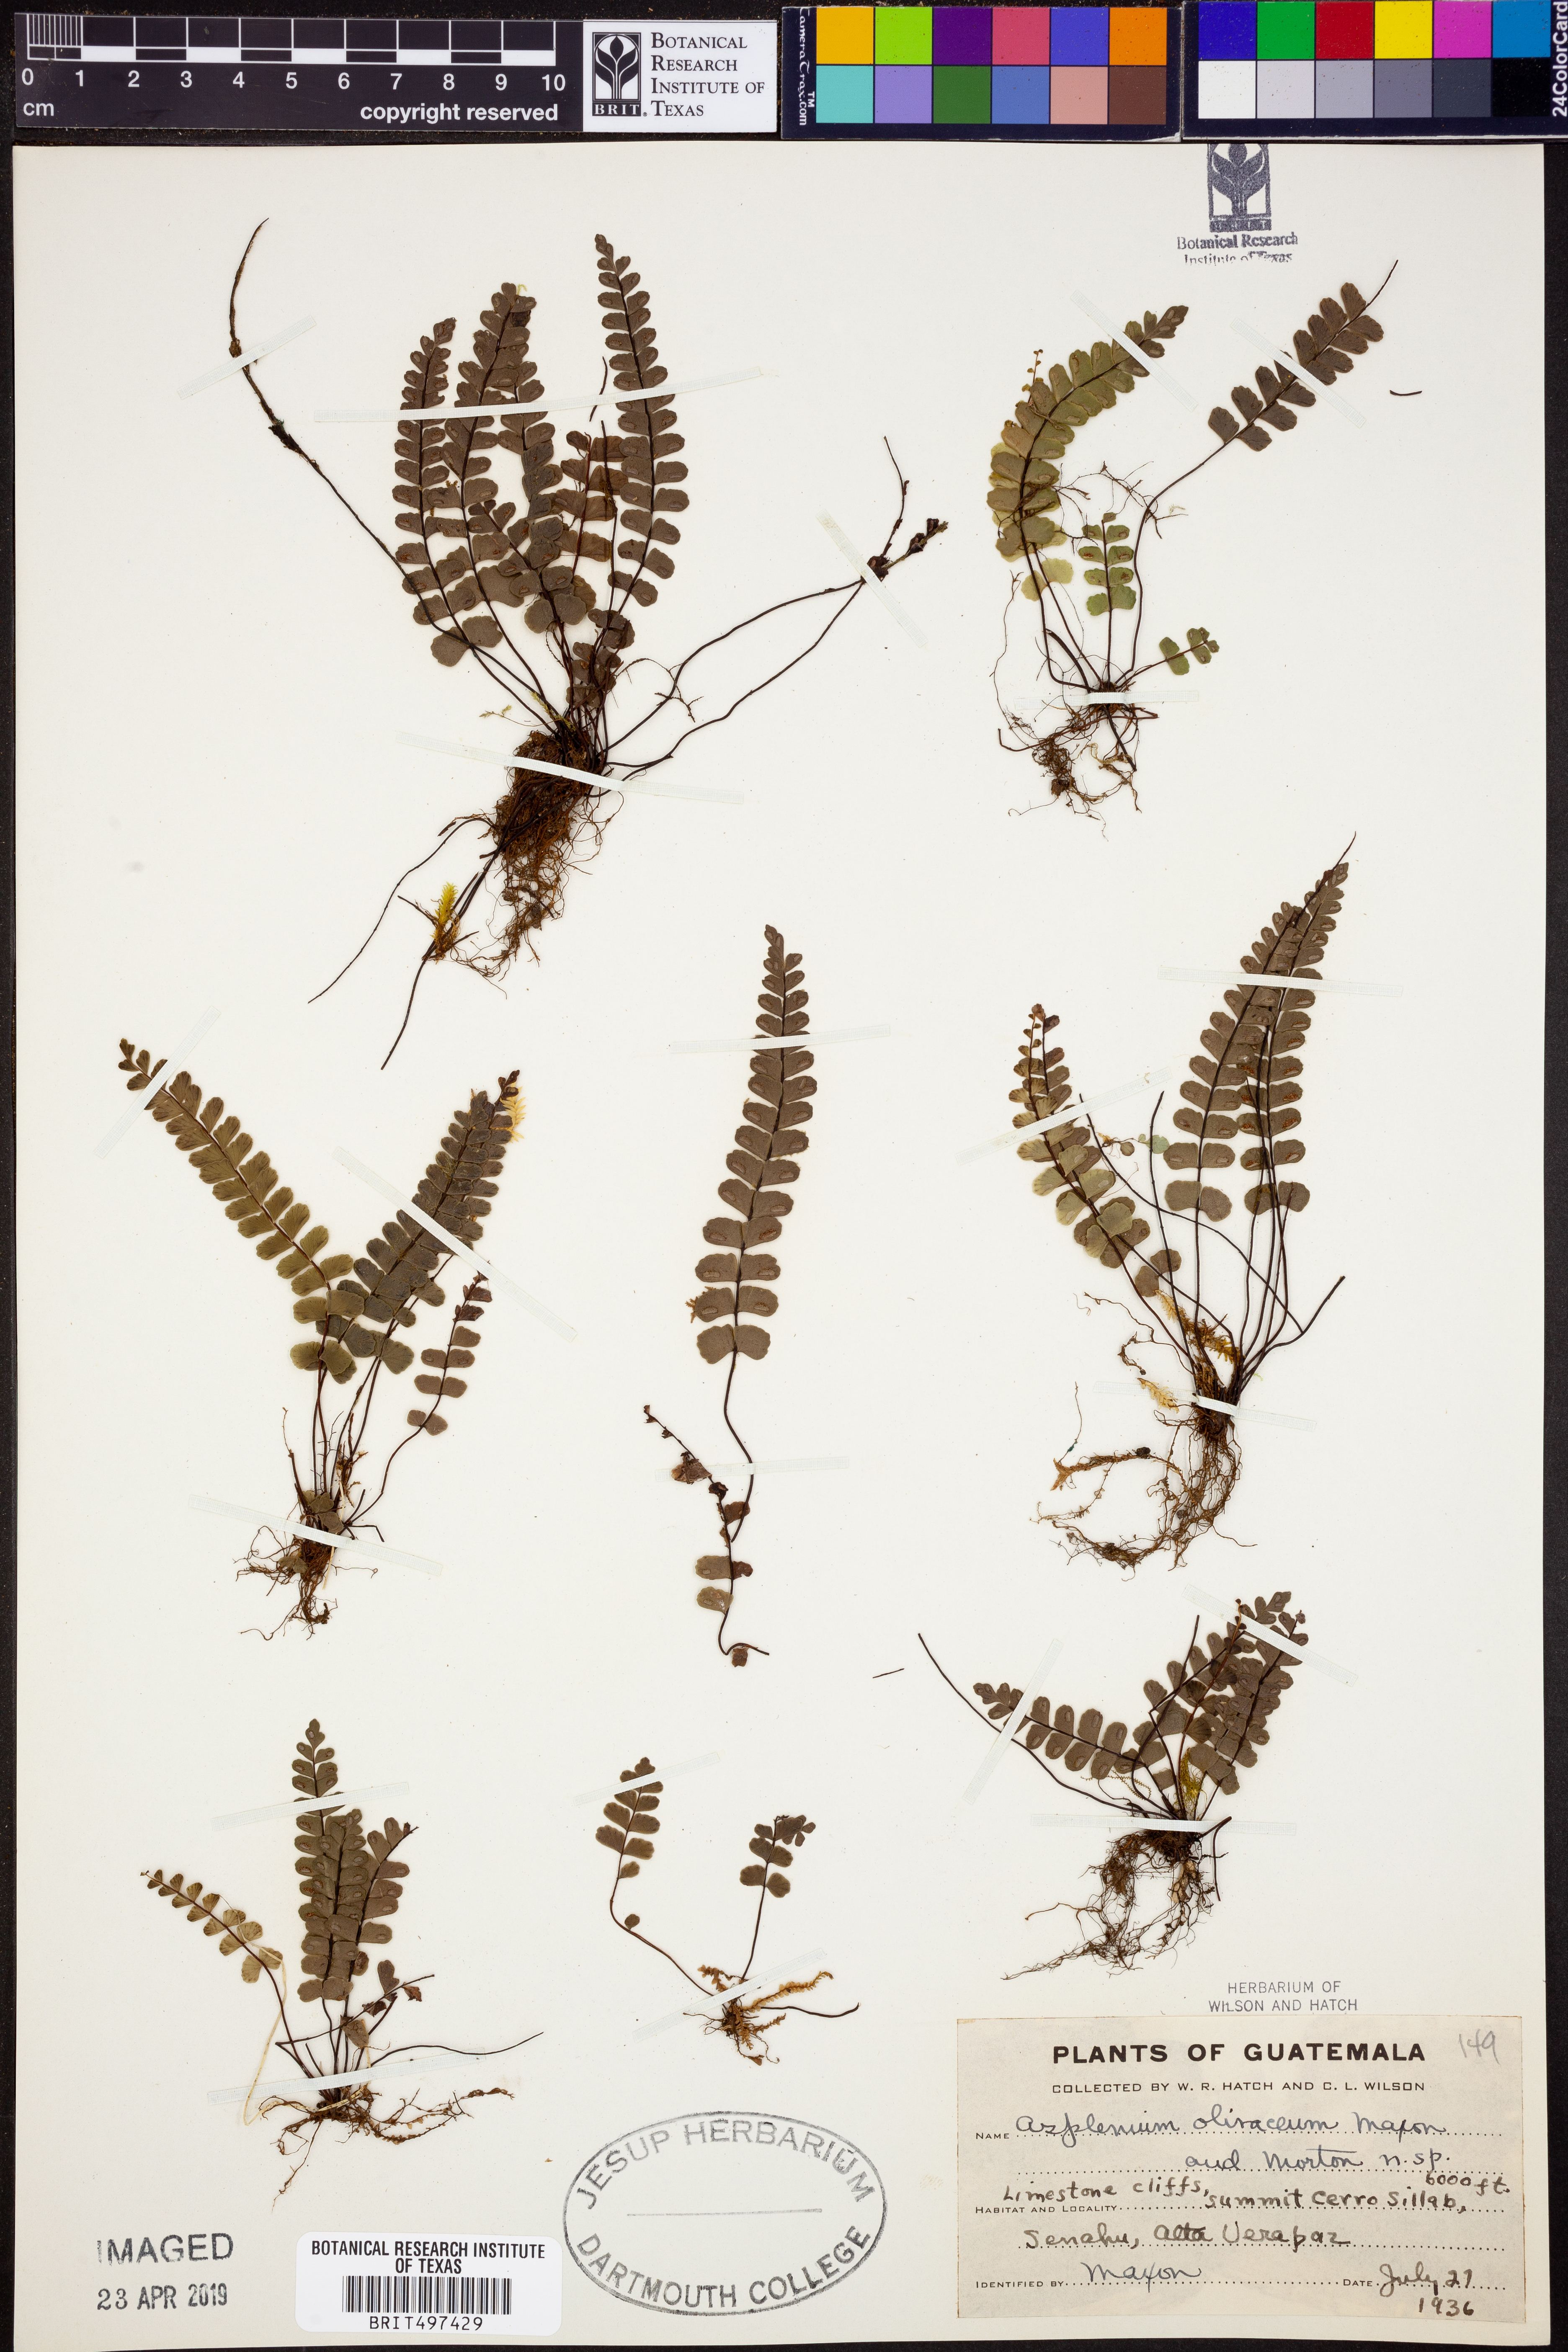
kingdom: Plantae
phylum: Tracheophyta
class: Polypodiopsida
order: Polypodiales
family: Aspleniaceae
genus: Asplenium
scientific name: Asplenium olivaceum
